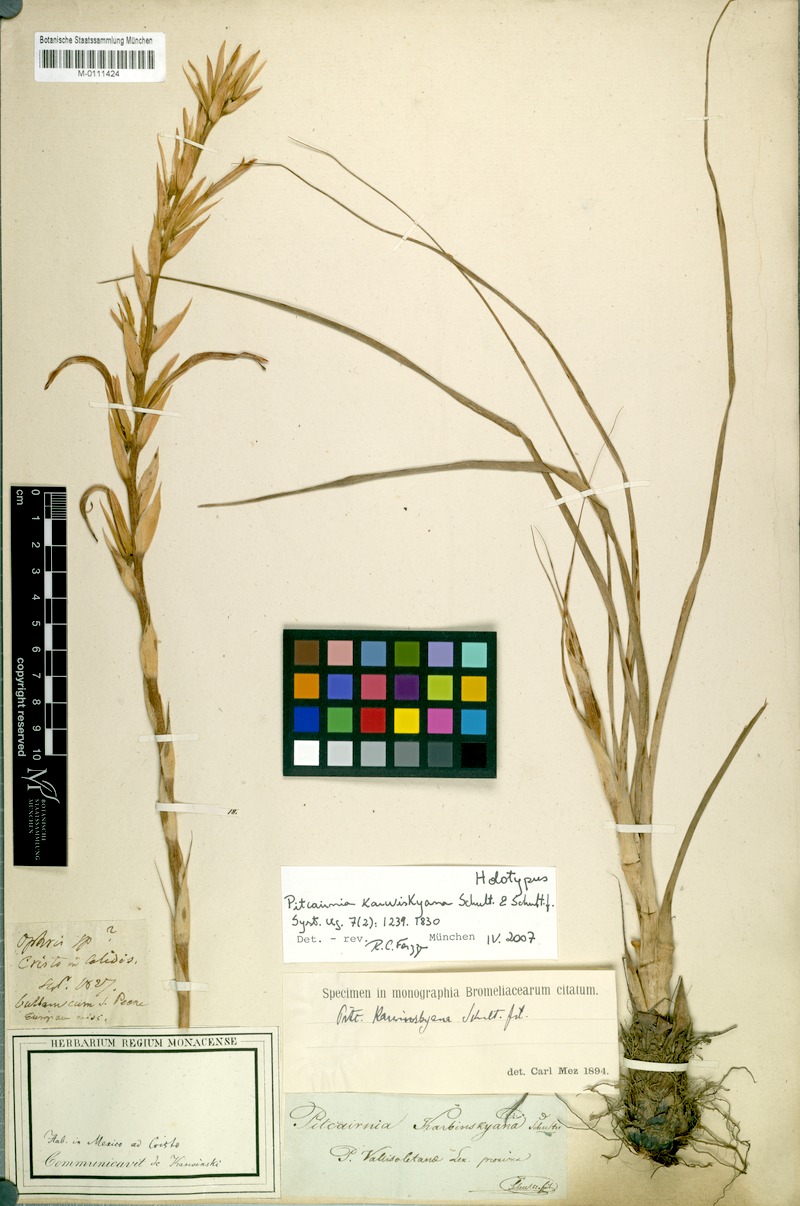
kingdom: Plantae
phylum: Tracheophyta
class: Liliopsida
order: Poales
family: Bromeliaceae
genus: Pitcairnia
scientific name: Pitcairnia karwinskyana
